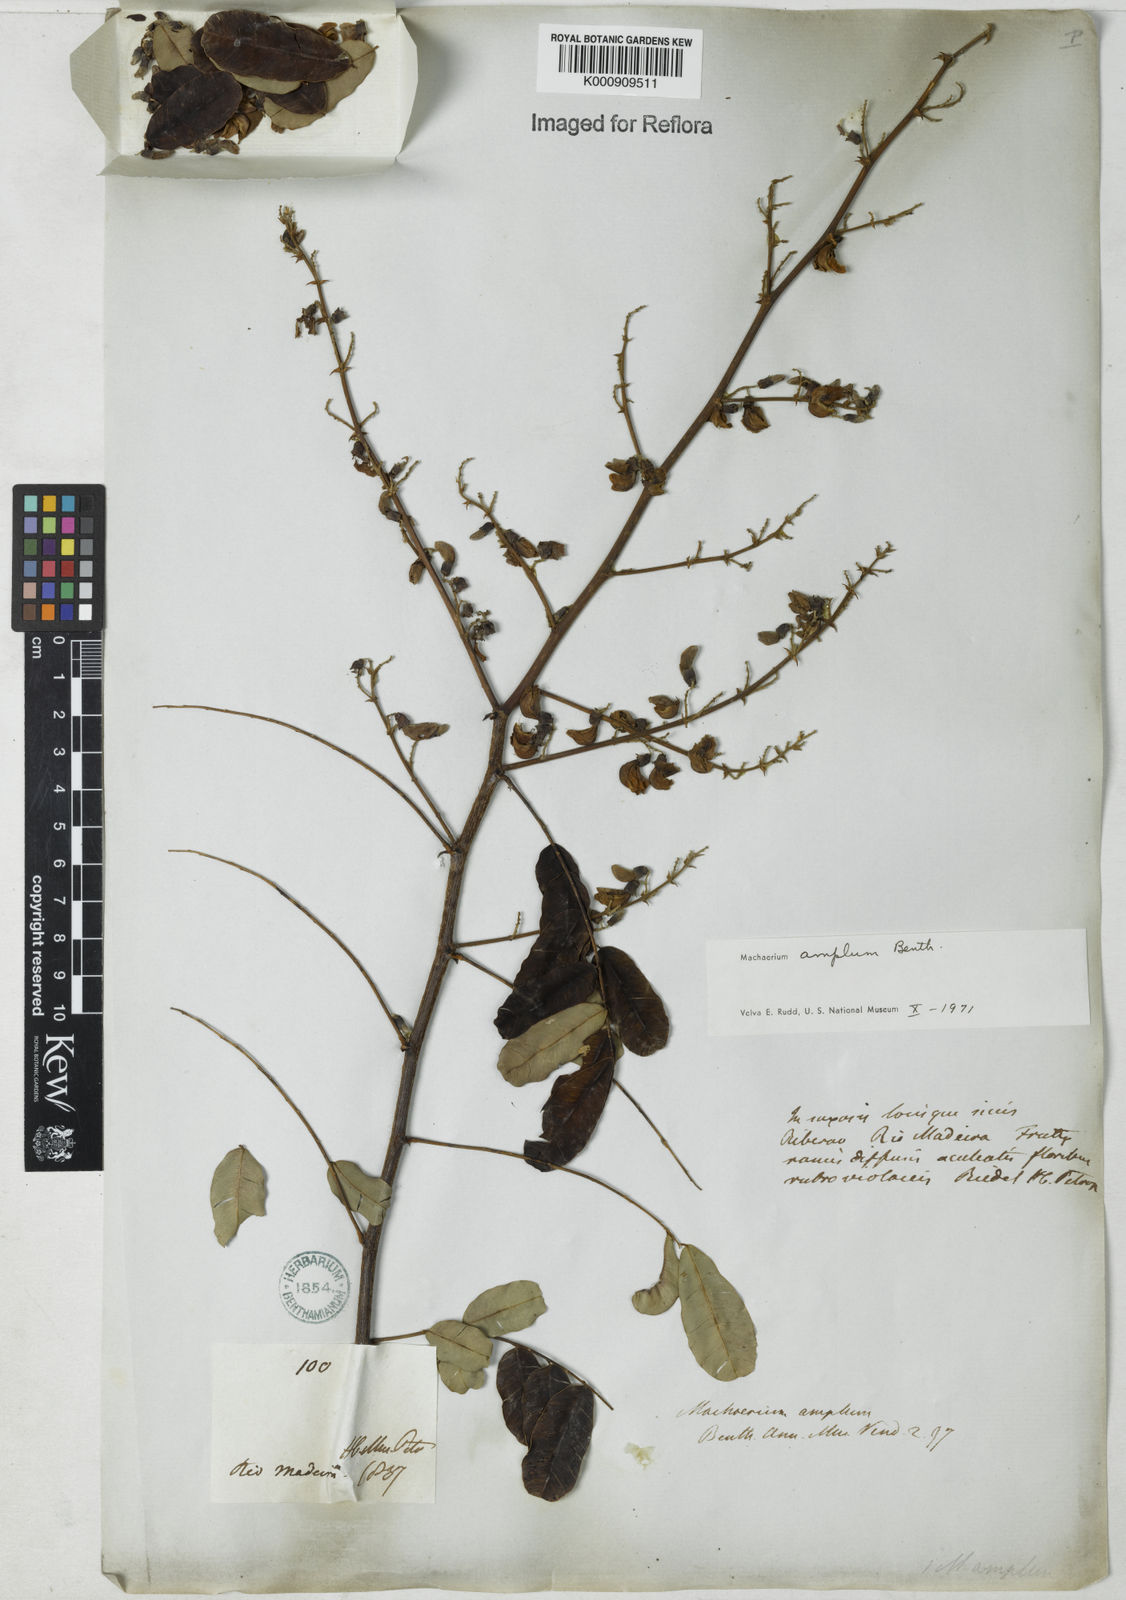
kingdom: Plantae
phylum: Tracheophyta
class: Magnoliopsida
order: Fabales
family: Fabaceae
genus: Machaerium
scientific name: Machaerium amplum
